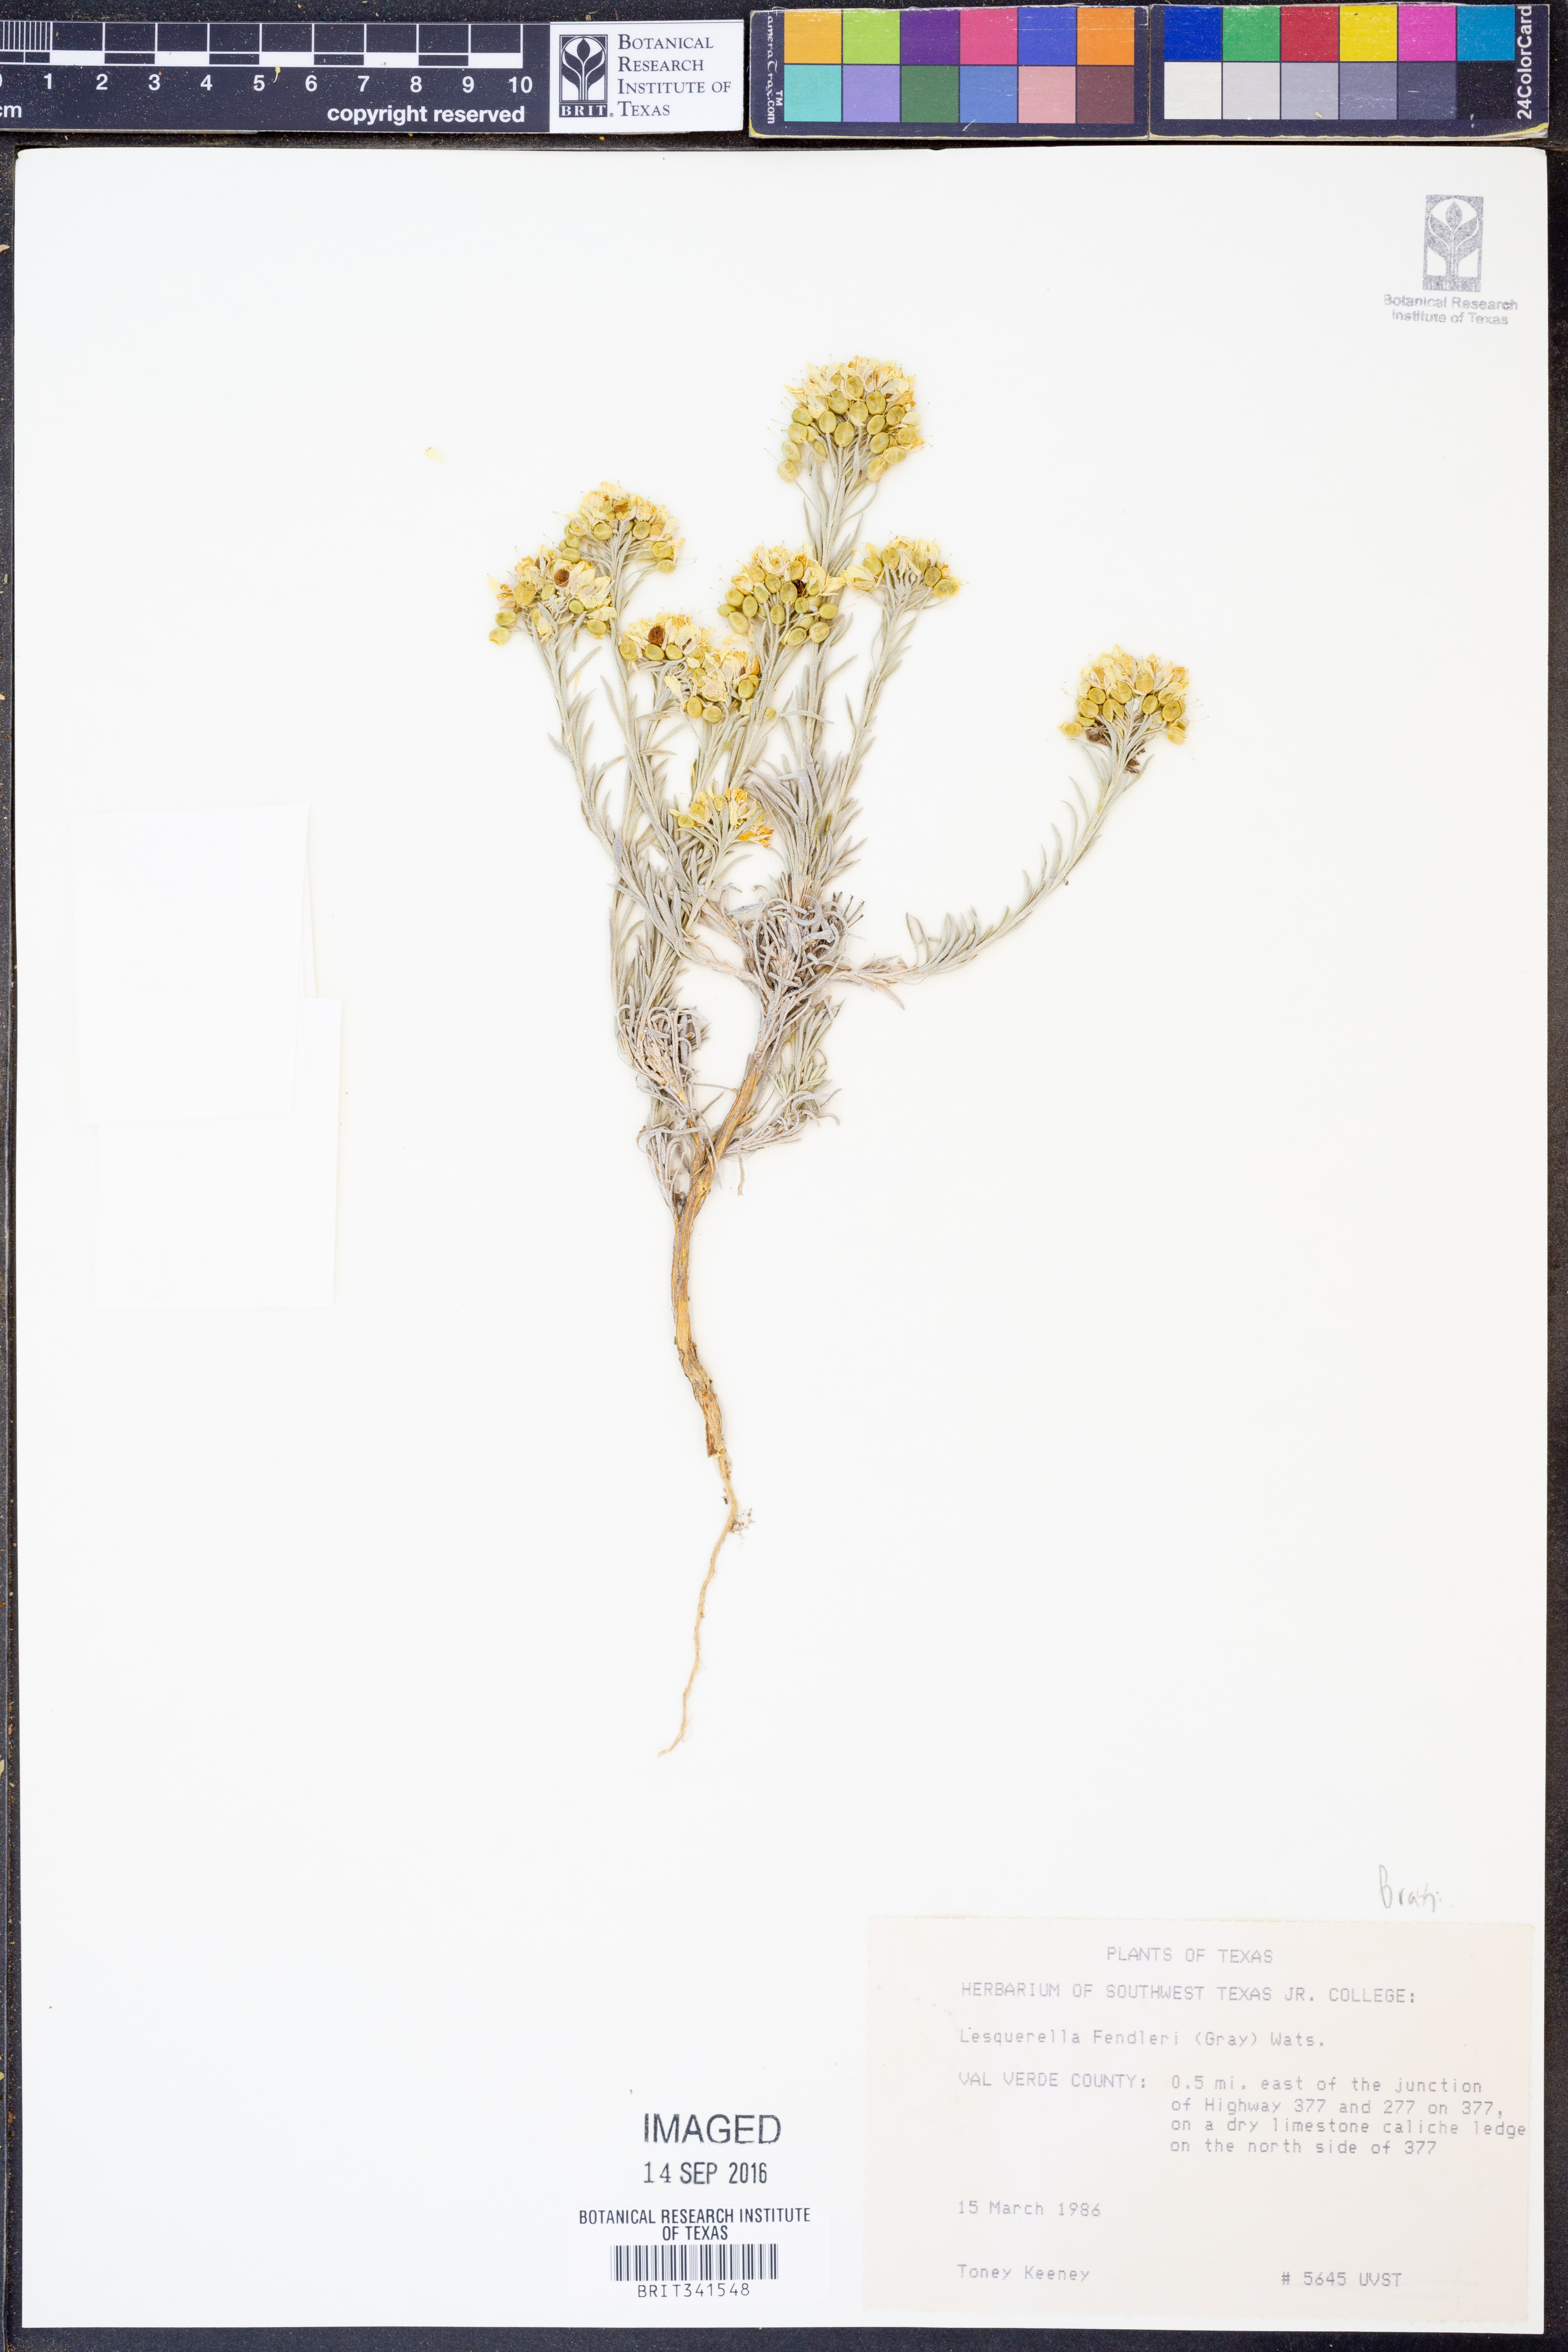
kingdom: Plantae
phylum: Tracheophyta
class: Magnoliopsida
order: Brassicales
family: Brassicaceae
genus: Physaria
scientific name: Physaria fendleri
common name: Fendler's bladderpod
